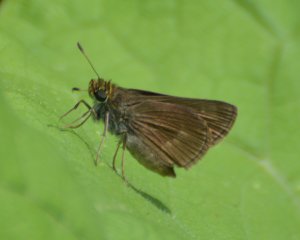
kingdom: Animalia
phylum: Arthropoda
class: Insecta
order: Lepidoptera
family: Hesperiidae
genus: Euphyes
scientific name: Euphyes vestris
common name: Dun Skipper
